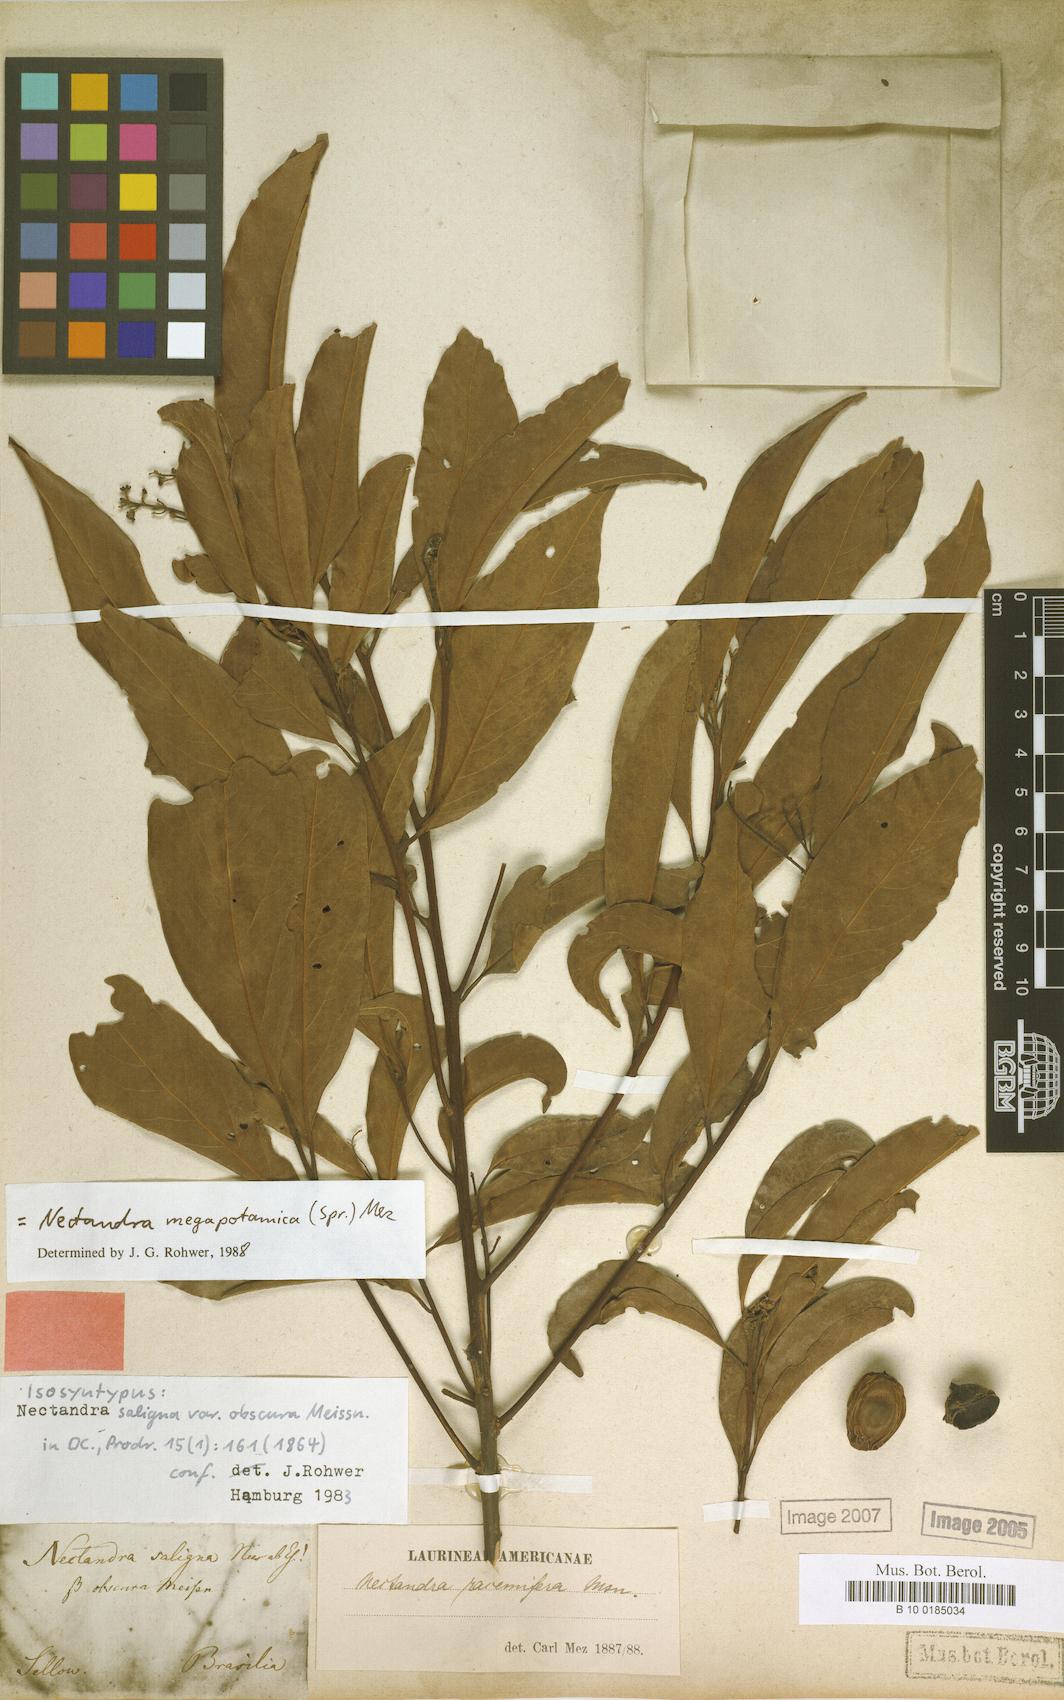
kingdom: Plantae
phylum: Tracheophyta
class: Magnoliopsida
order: Laurales
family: Lauraceae
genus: Nectandra
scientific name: Nectandra megapotamica
